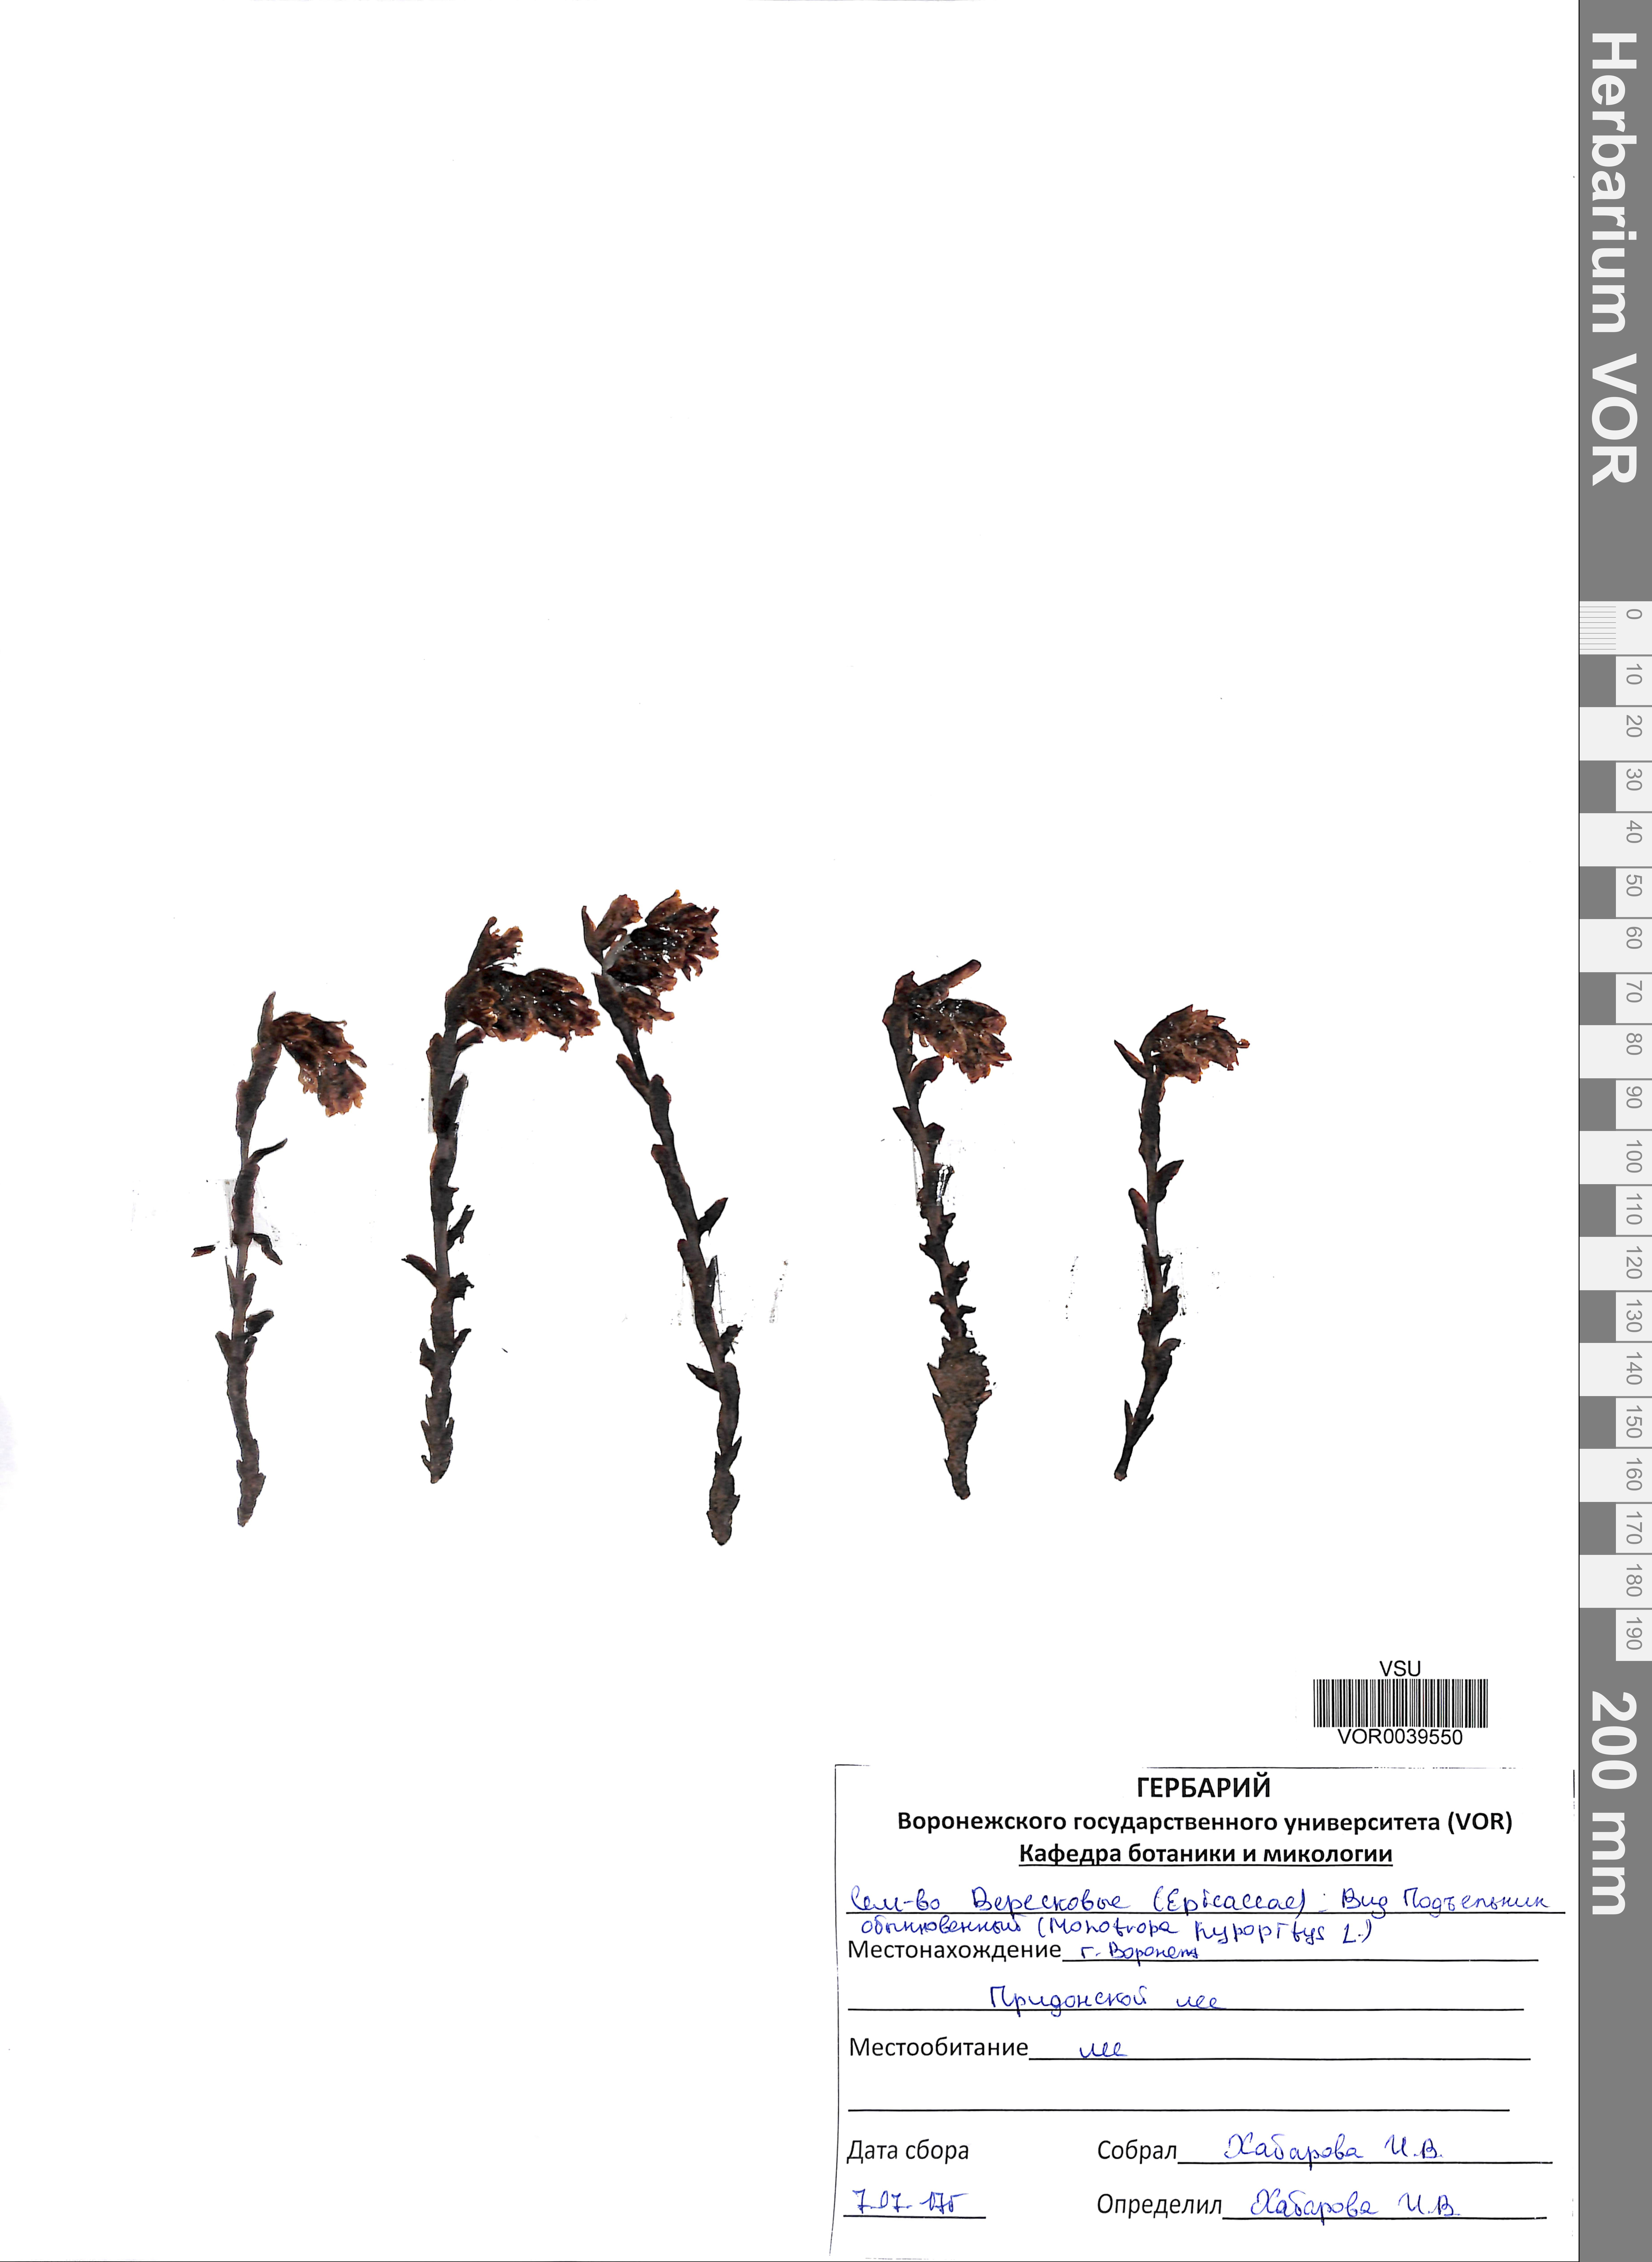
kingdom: Plantae
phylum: Tracheophyta
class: Magnoliopsida
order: Ericales
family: Ericaceae
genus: Hypopitys
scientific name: Hypopitys monotropa
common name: Yellow bird's-nest
